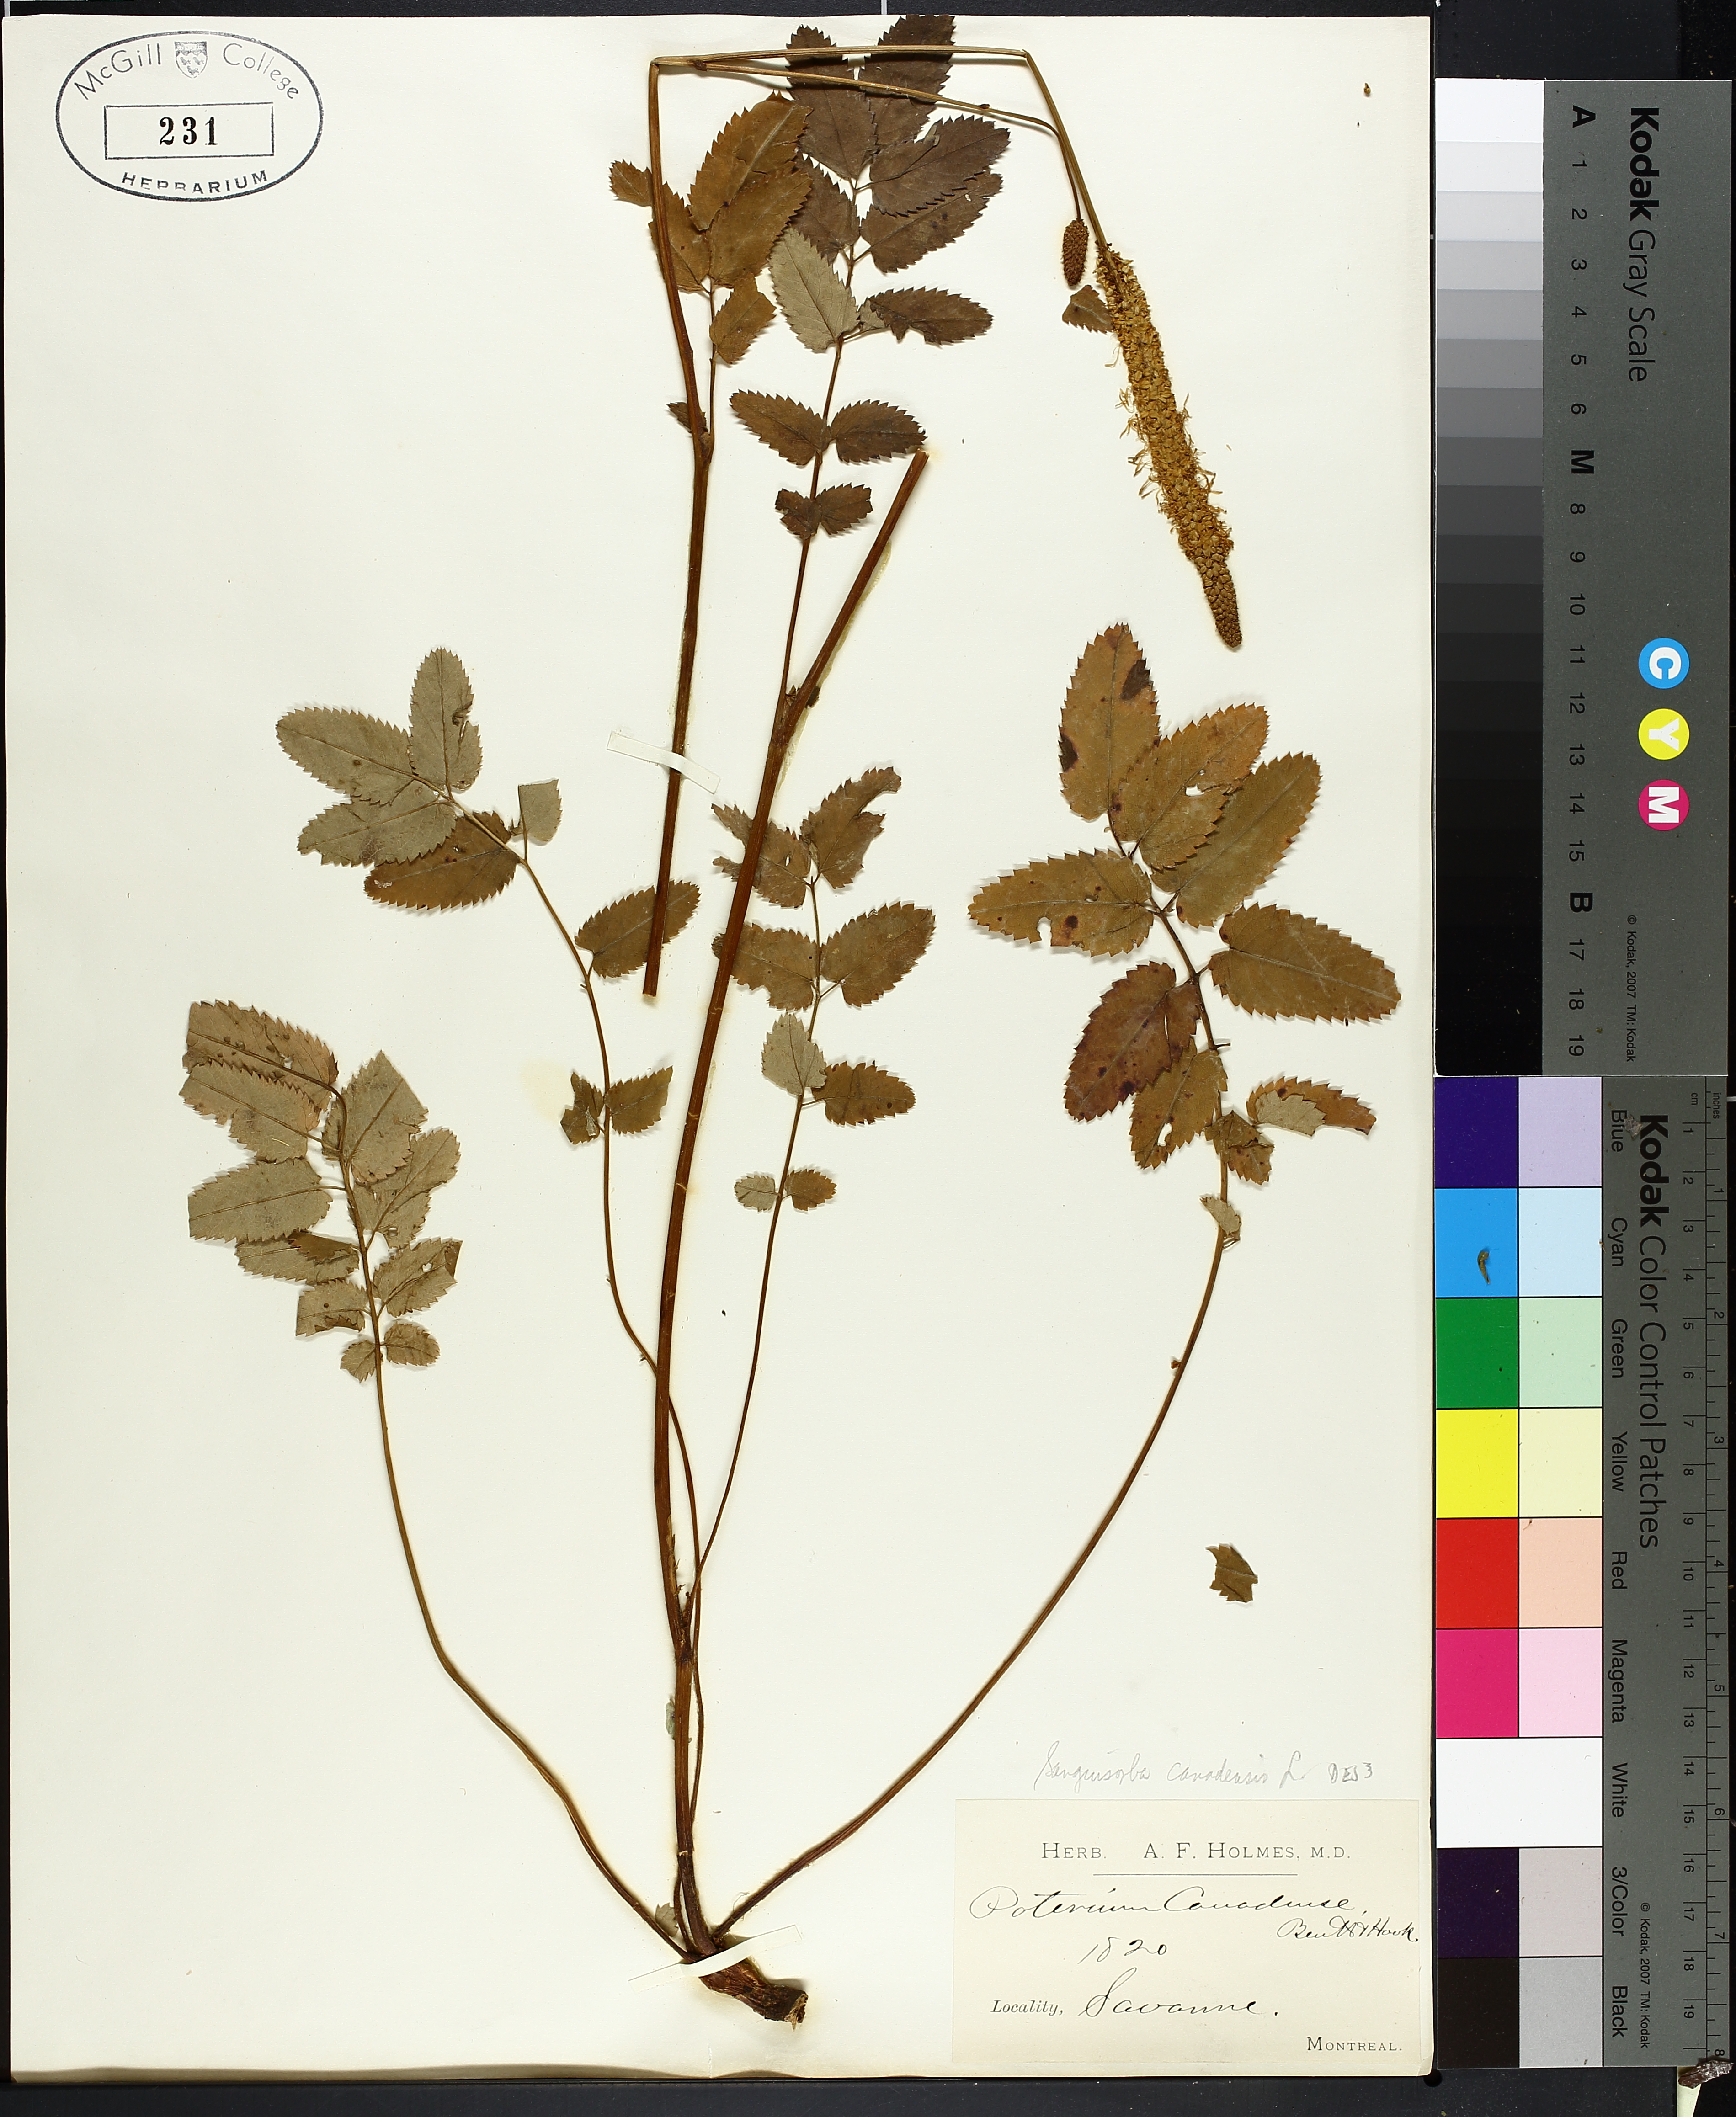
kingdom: Plantae
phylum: Tracheophyta
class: Magnoliopsida
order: Rosales
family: Rosaceae
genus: Sanguisorba
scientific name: Sanguisorba canadensis
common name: White burnet
